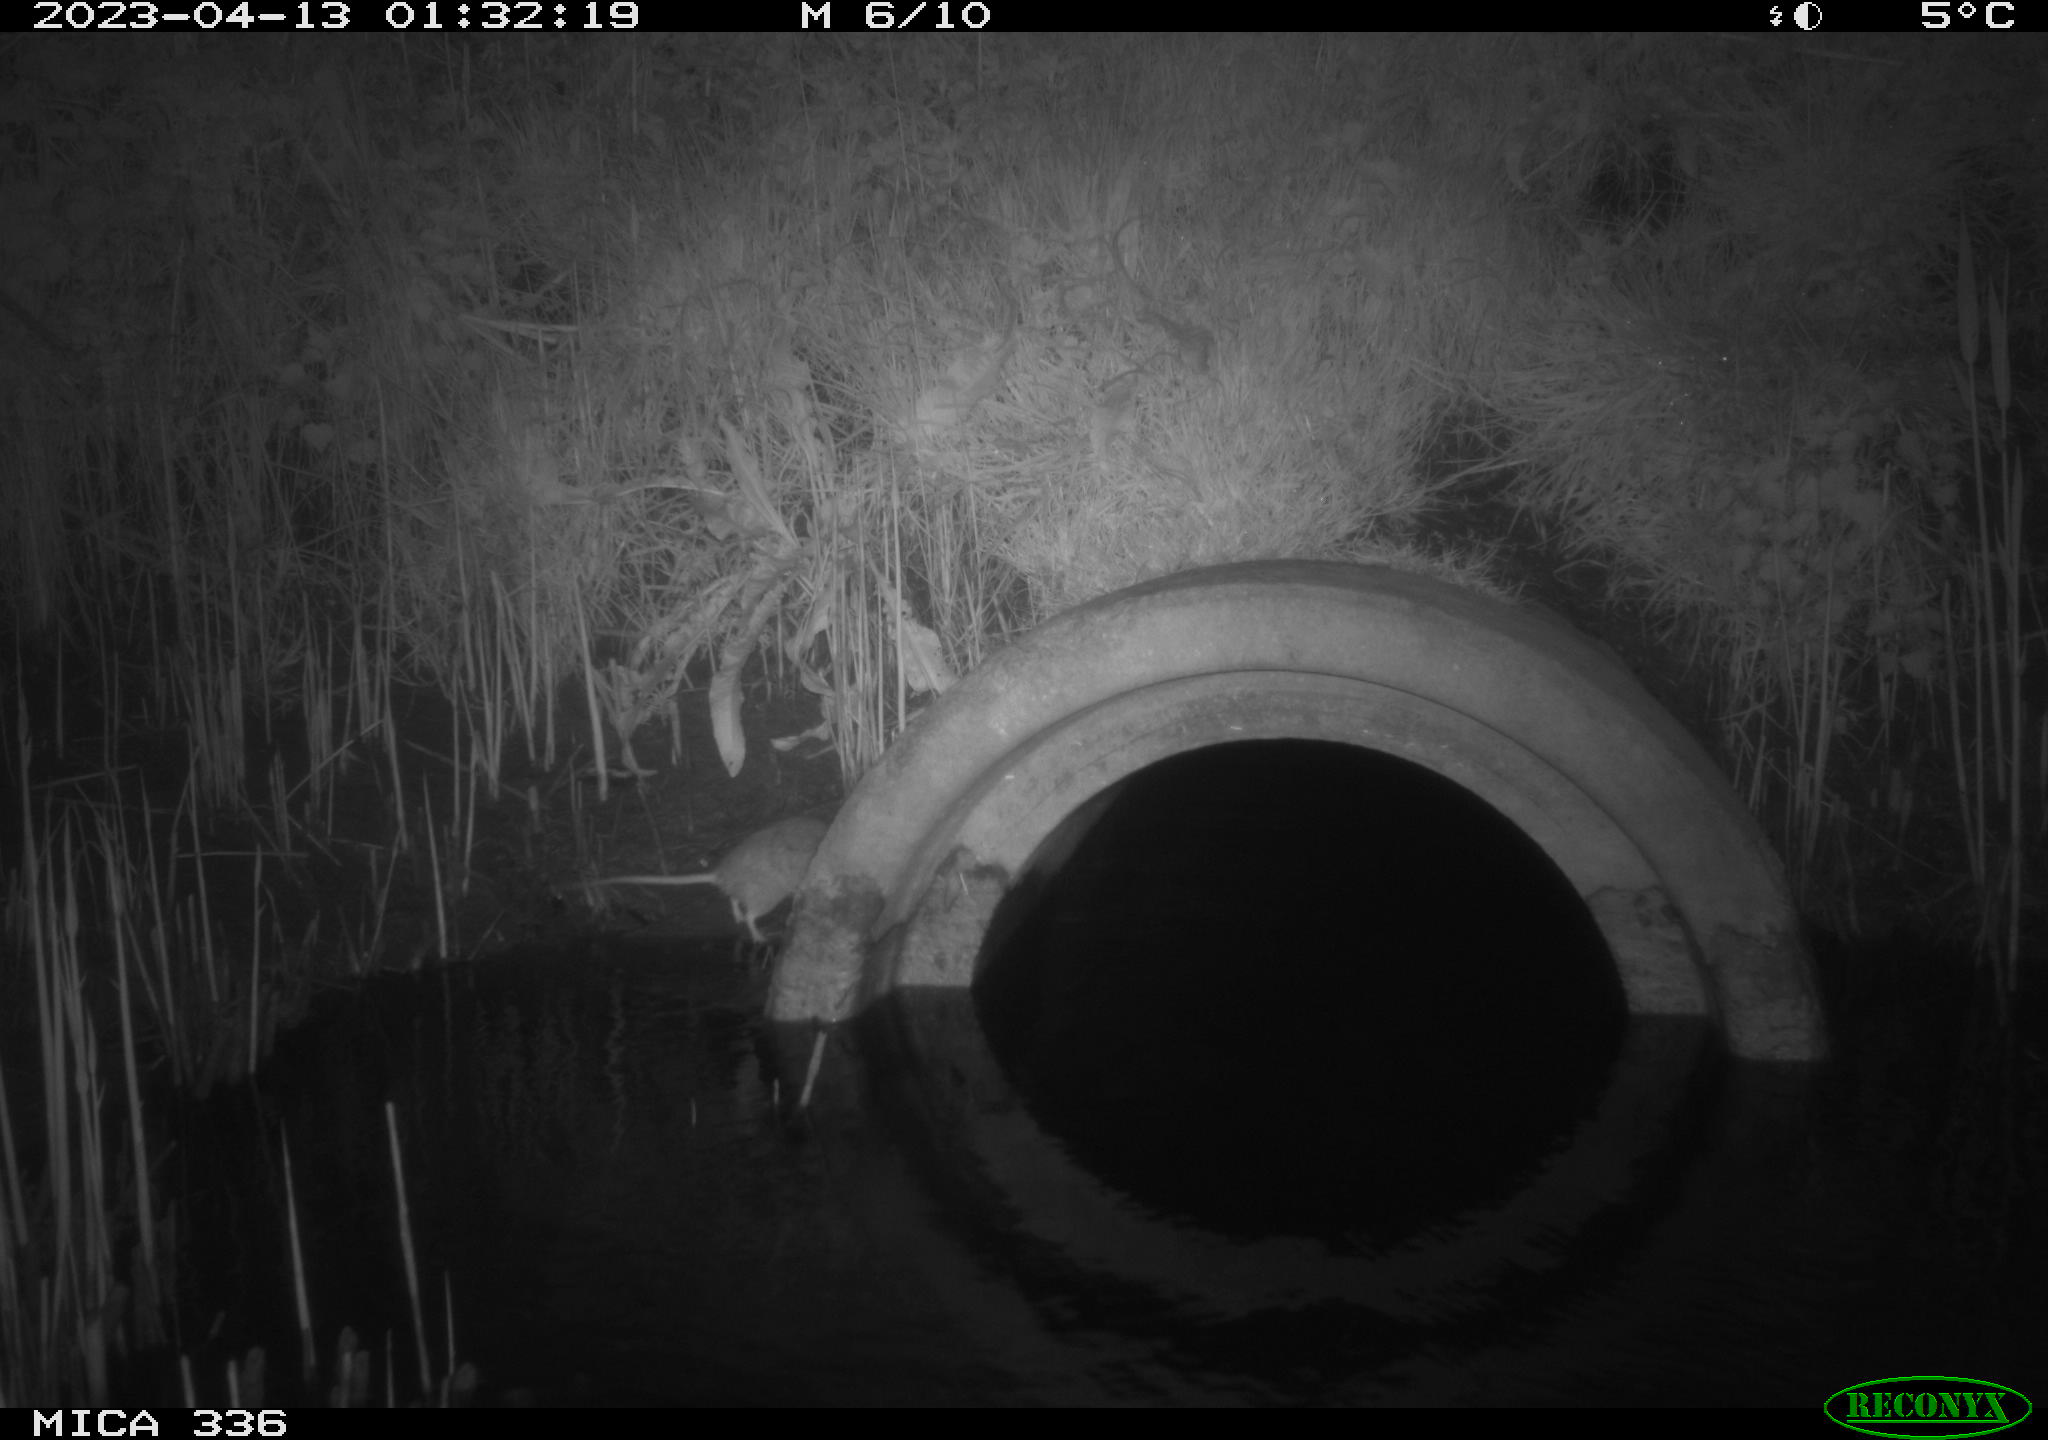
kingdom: Animalia
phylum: Chordata
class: Mammalia
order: Rodentia
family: Muridae
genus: Rattus
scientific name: Rattus norvegicus
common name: Brown rat
